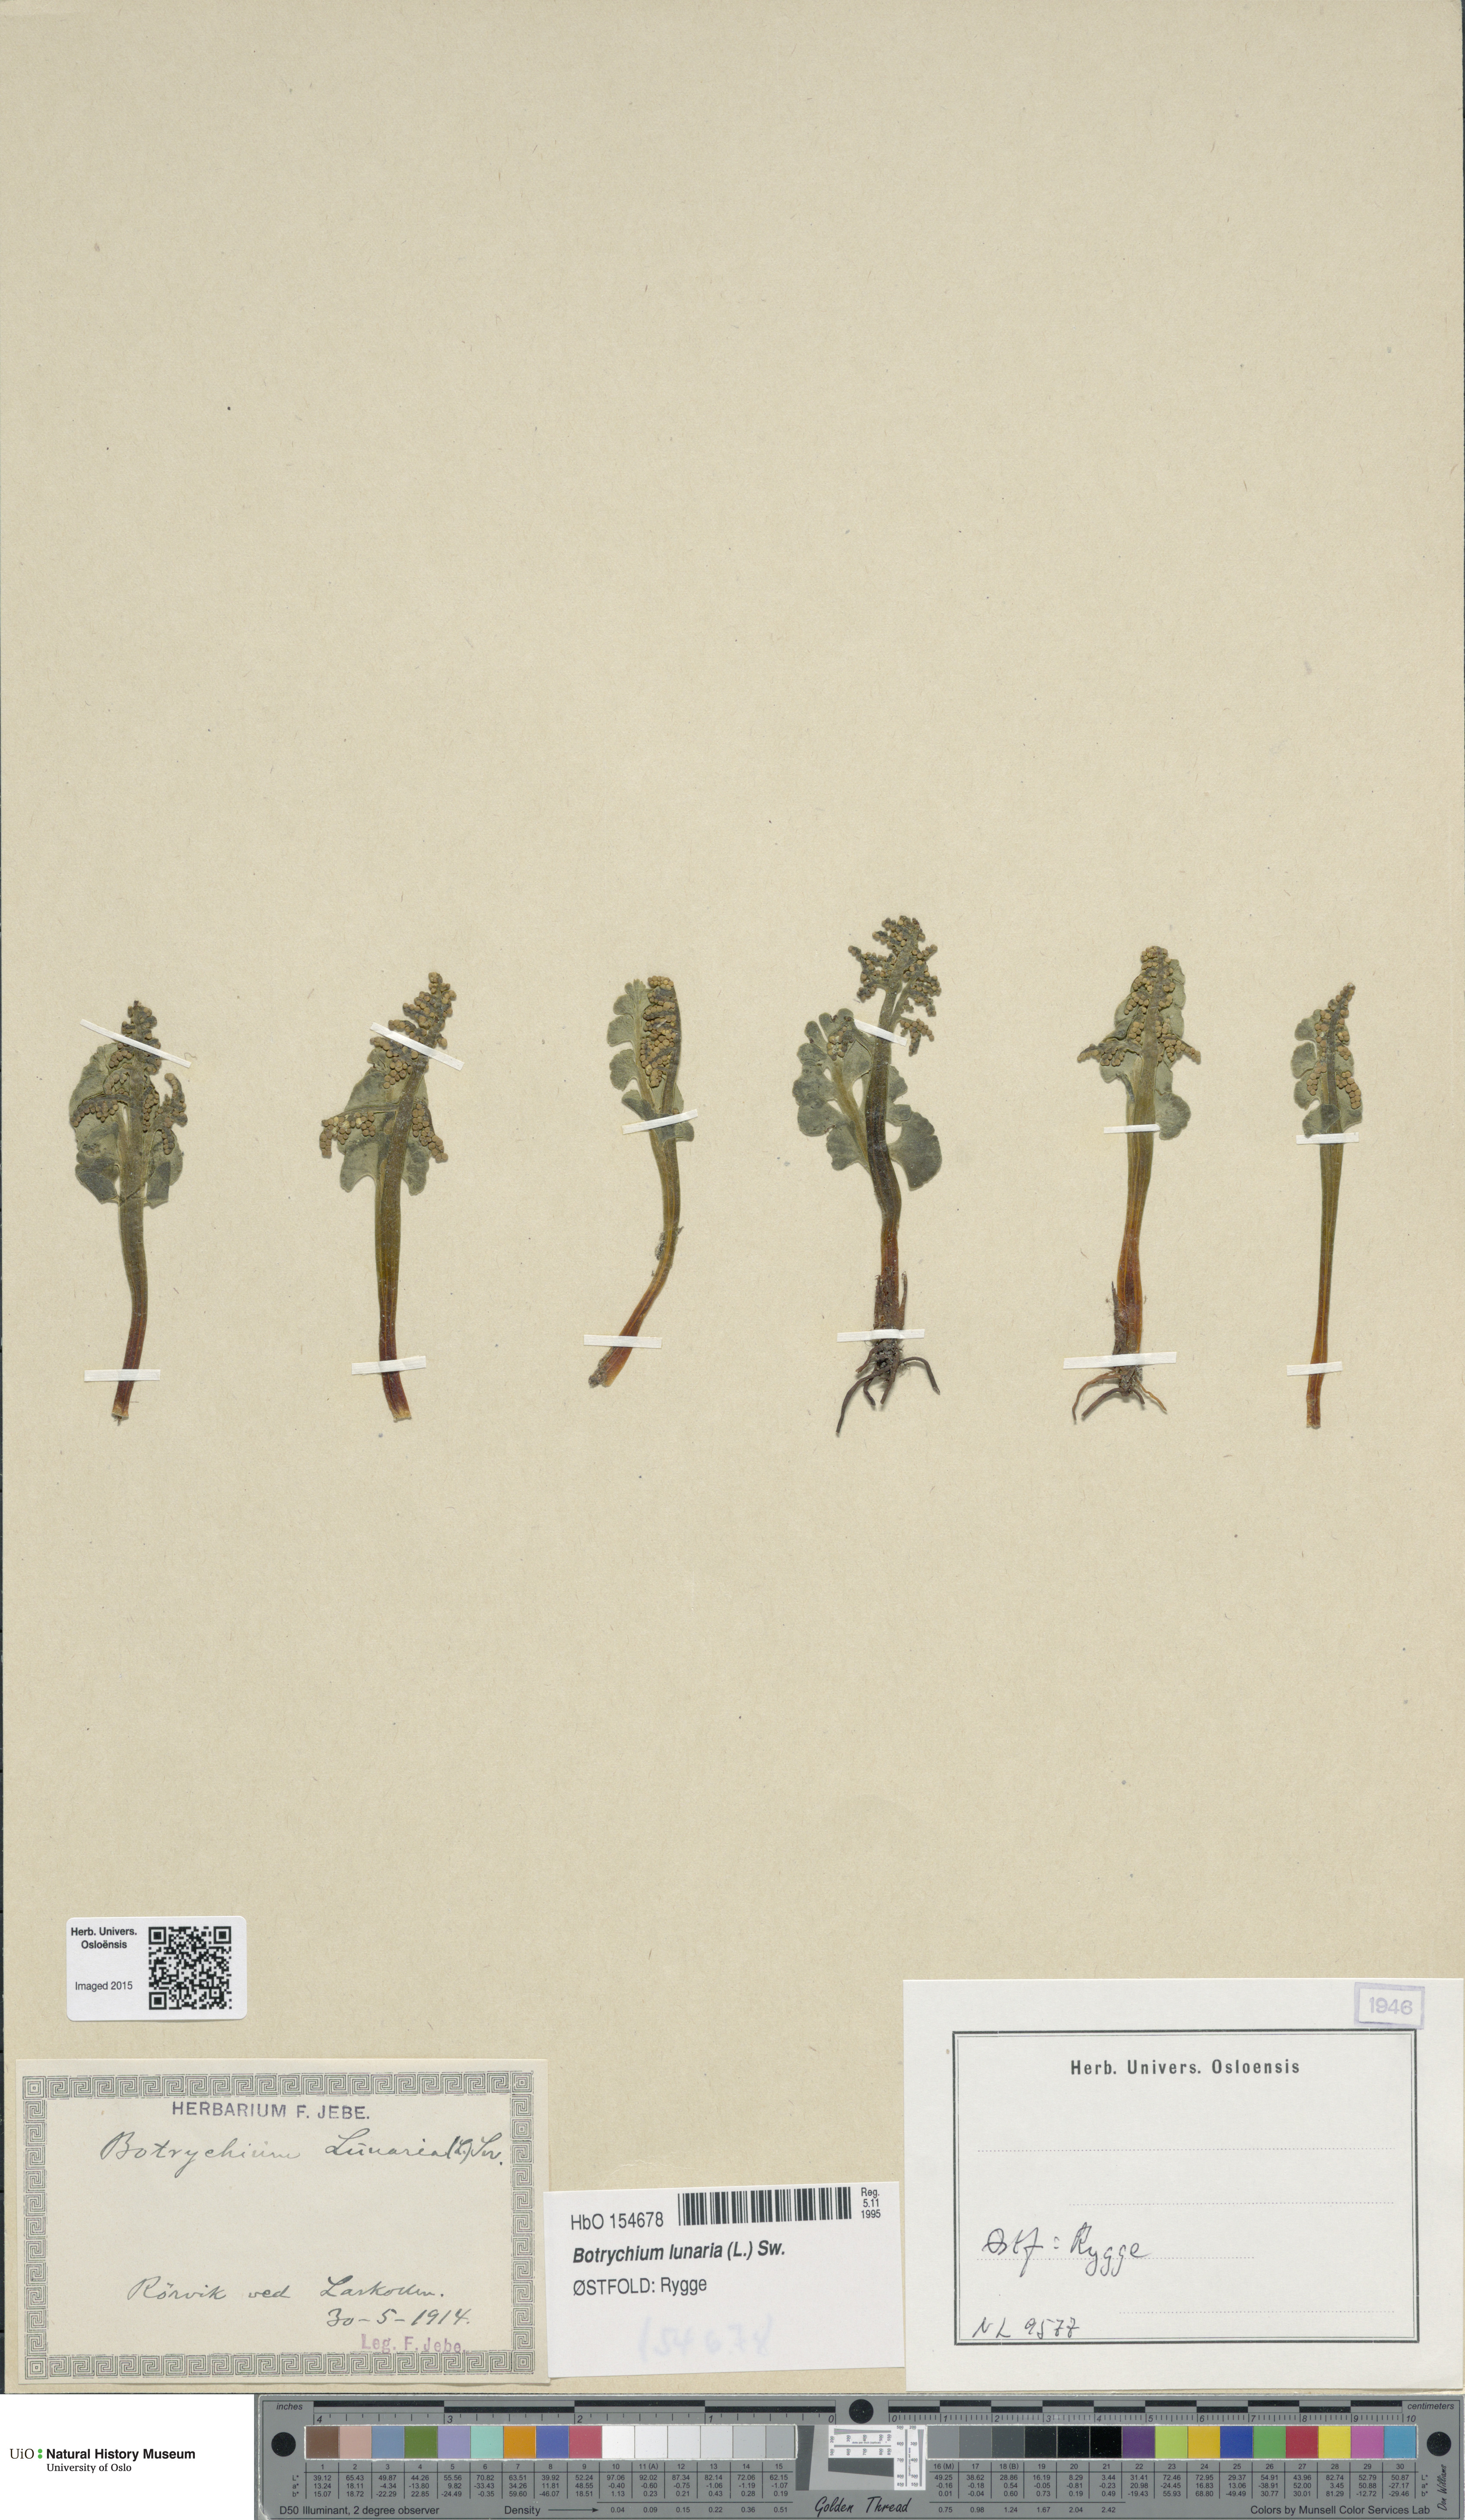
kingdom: Plantae
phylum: Tracheophyta
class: Polypodiopsida
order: Ophioglossales
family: Ophioglossaceae
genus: Botrychium
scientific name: Botrychium lunaria
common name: Moonwort
